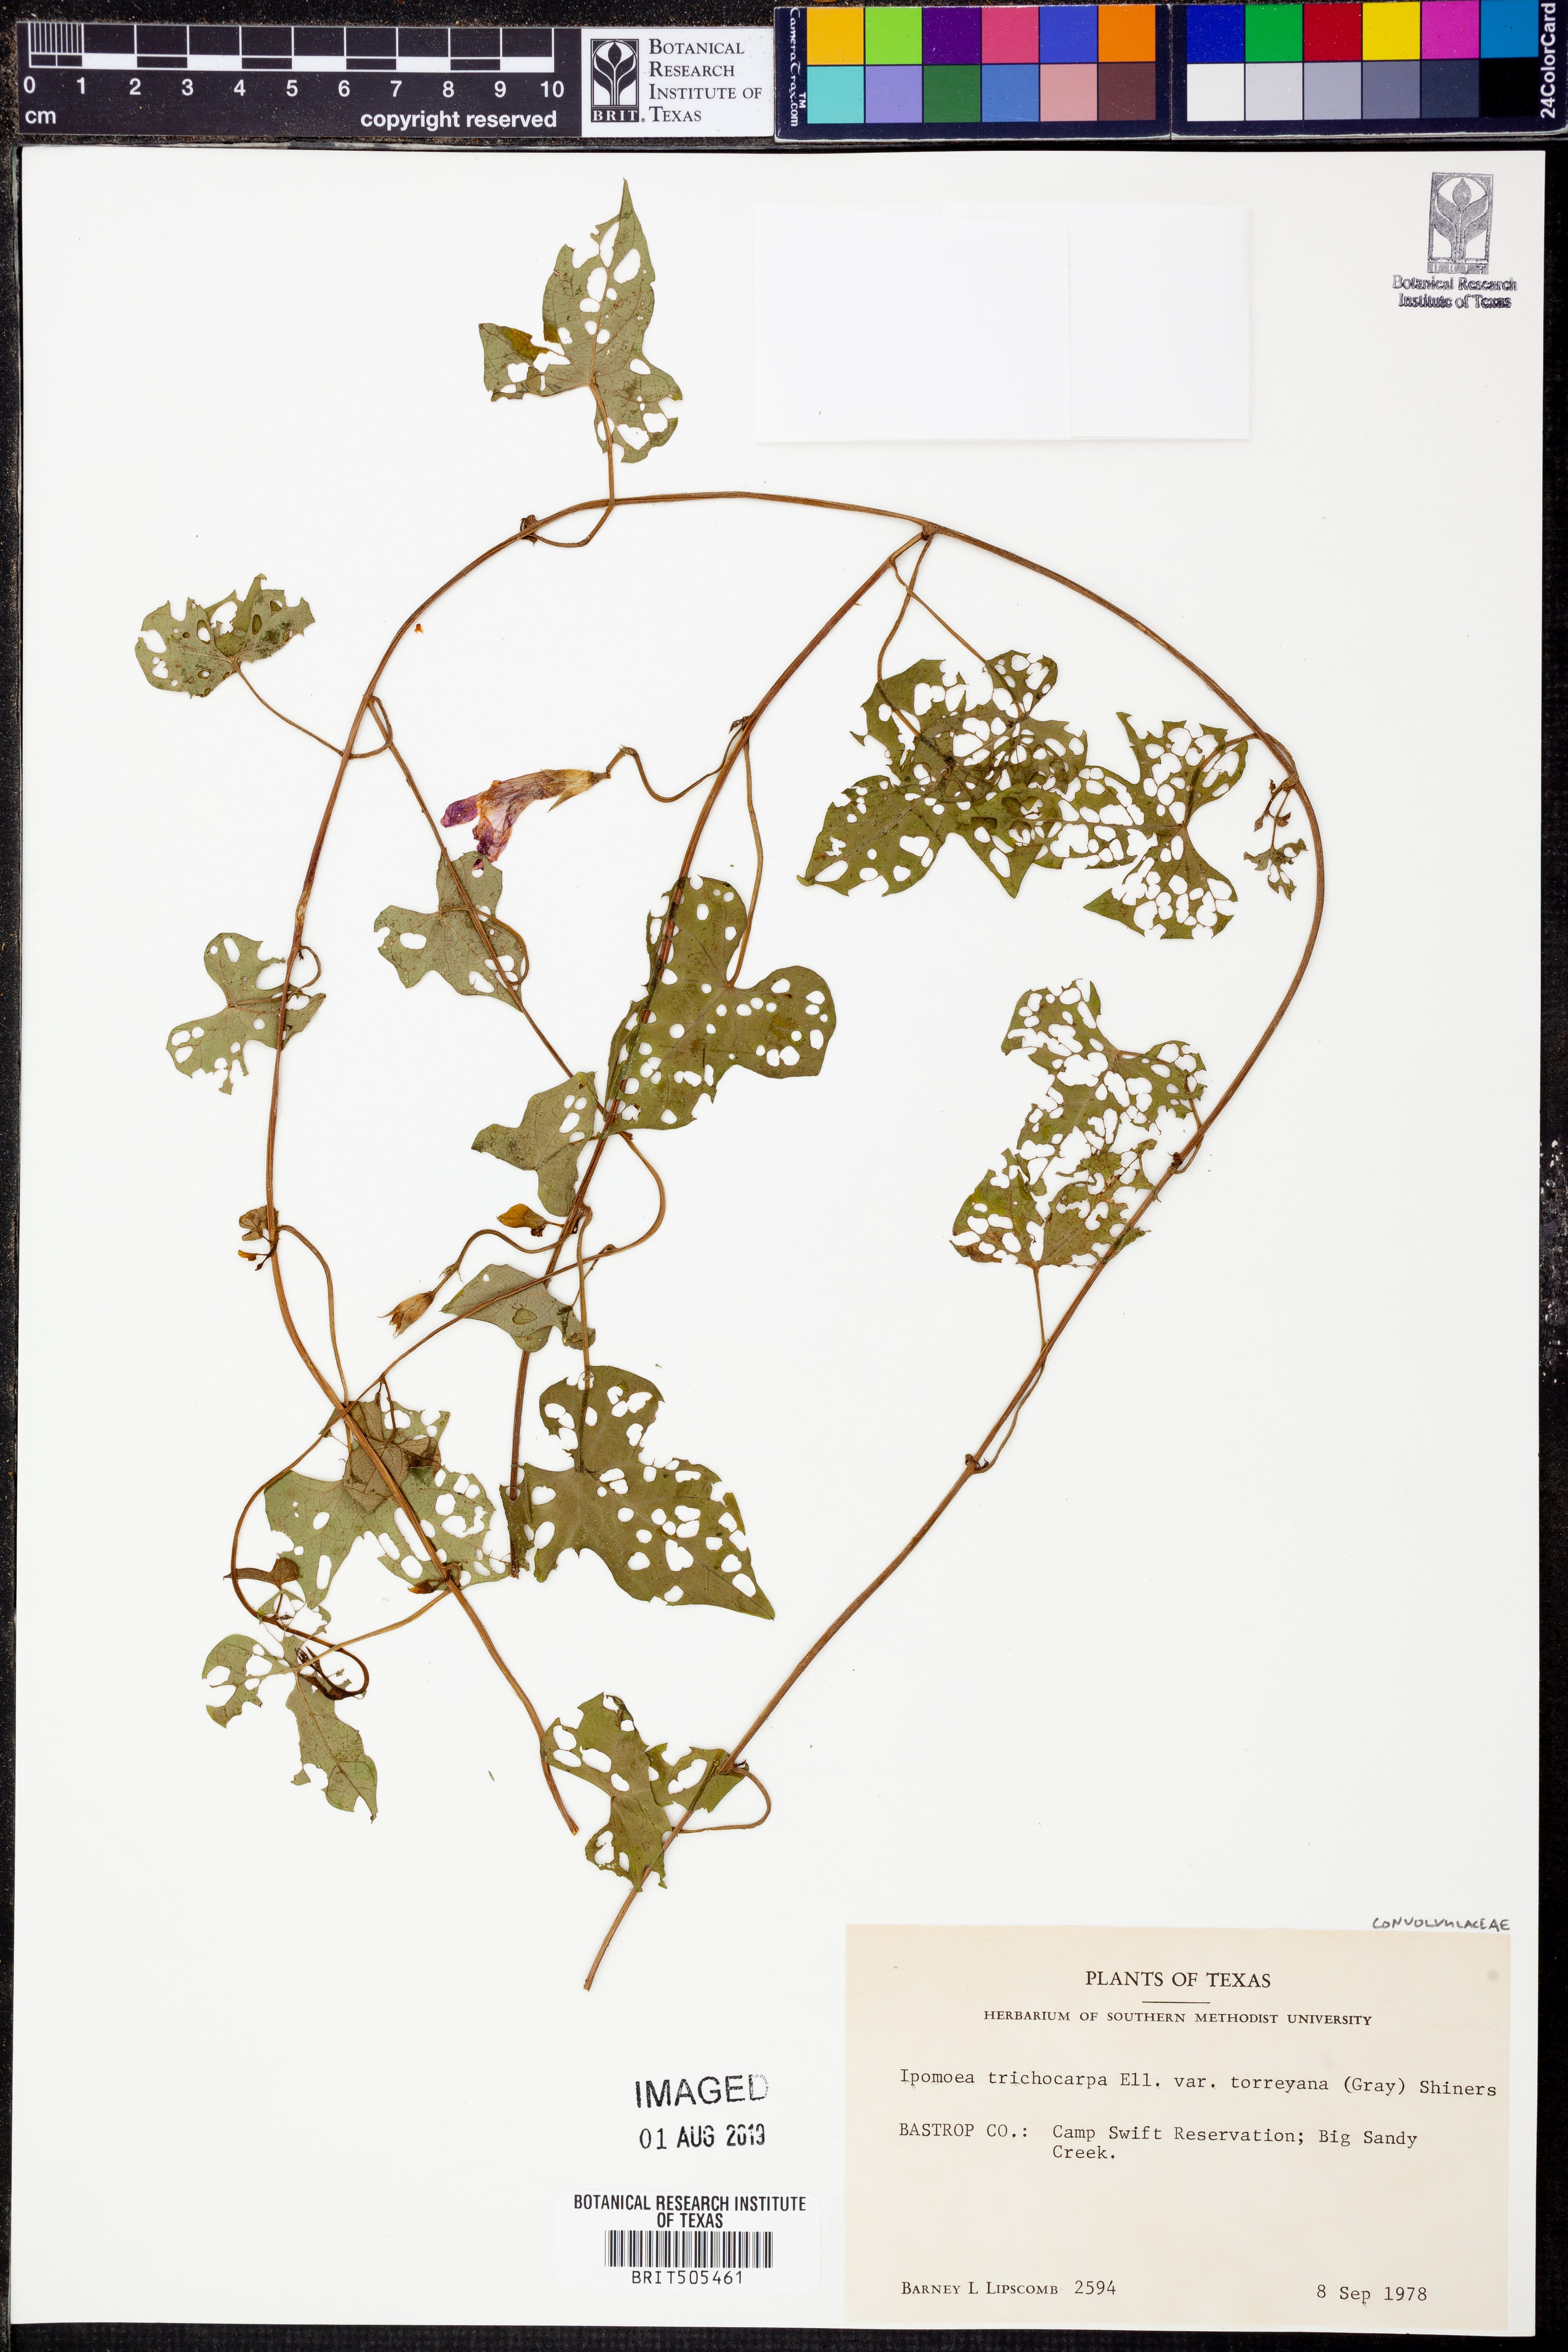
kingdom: Plantae
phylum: Tracheophyta
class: Magnoliopsida
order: Solanales
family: Convolvulaceae
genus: Ipomoea
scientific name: Ipomoea cordatotriloba
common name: Cotton morning glory
